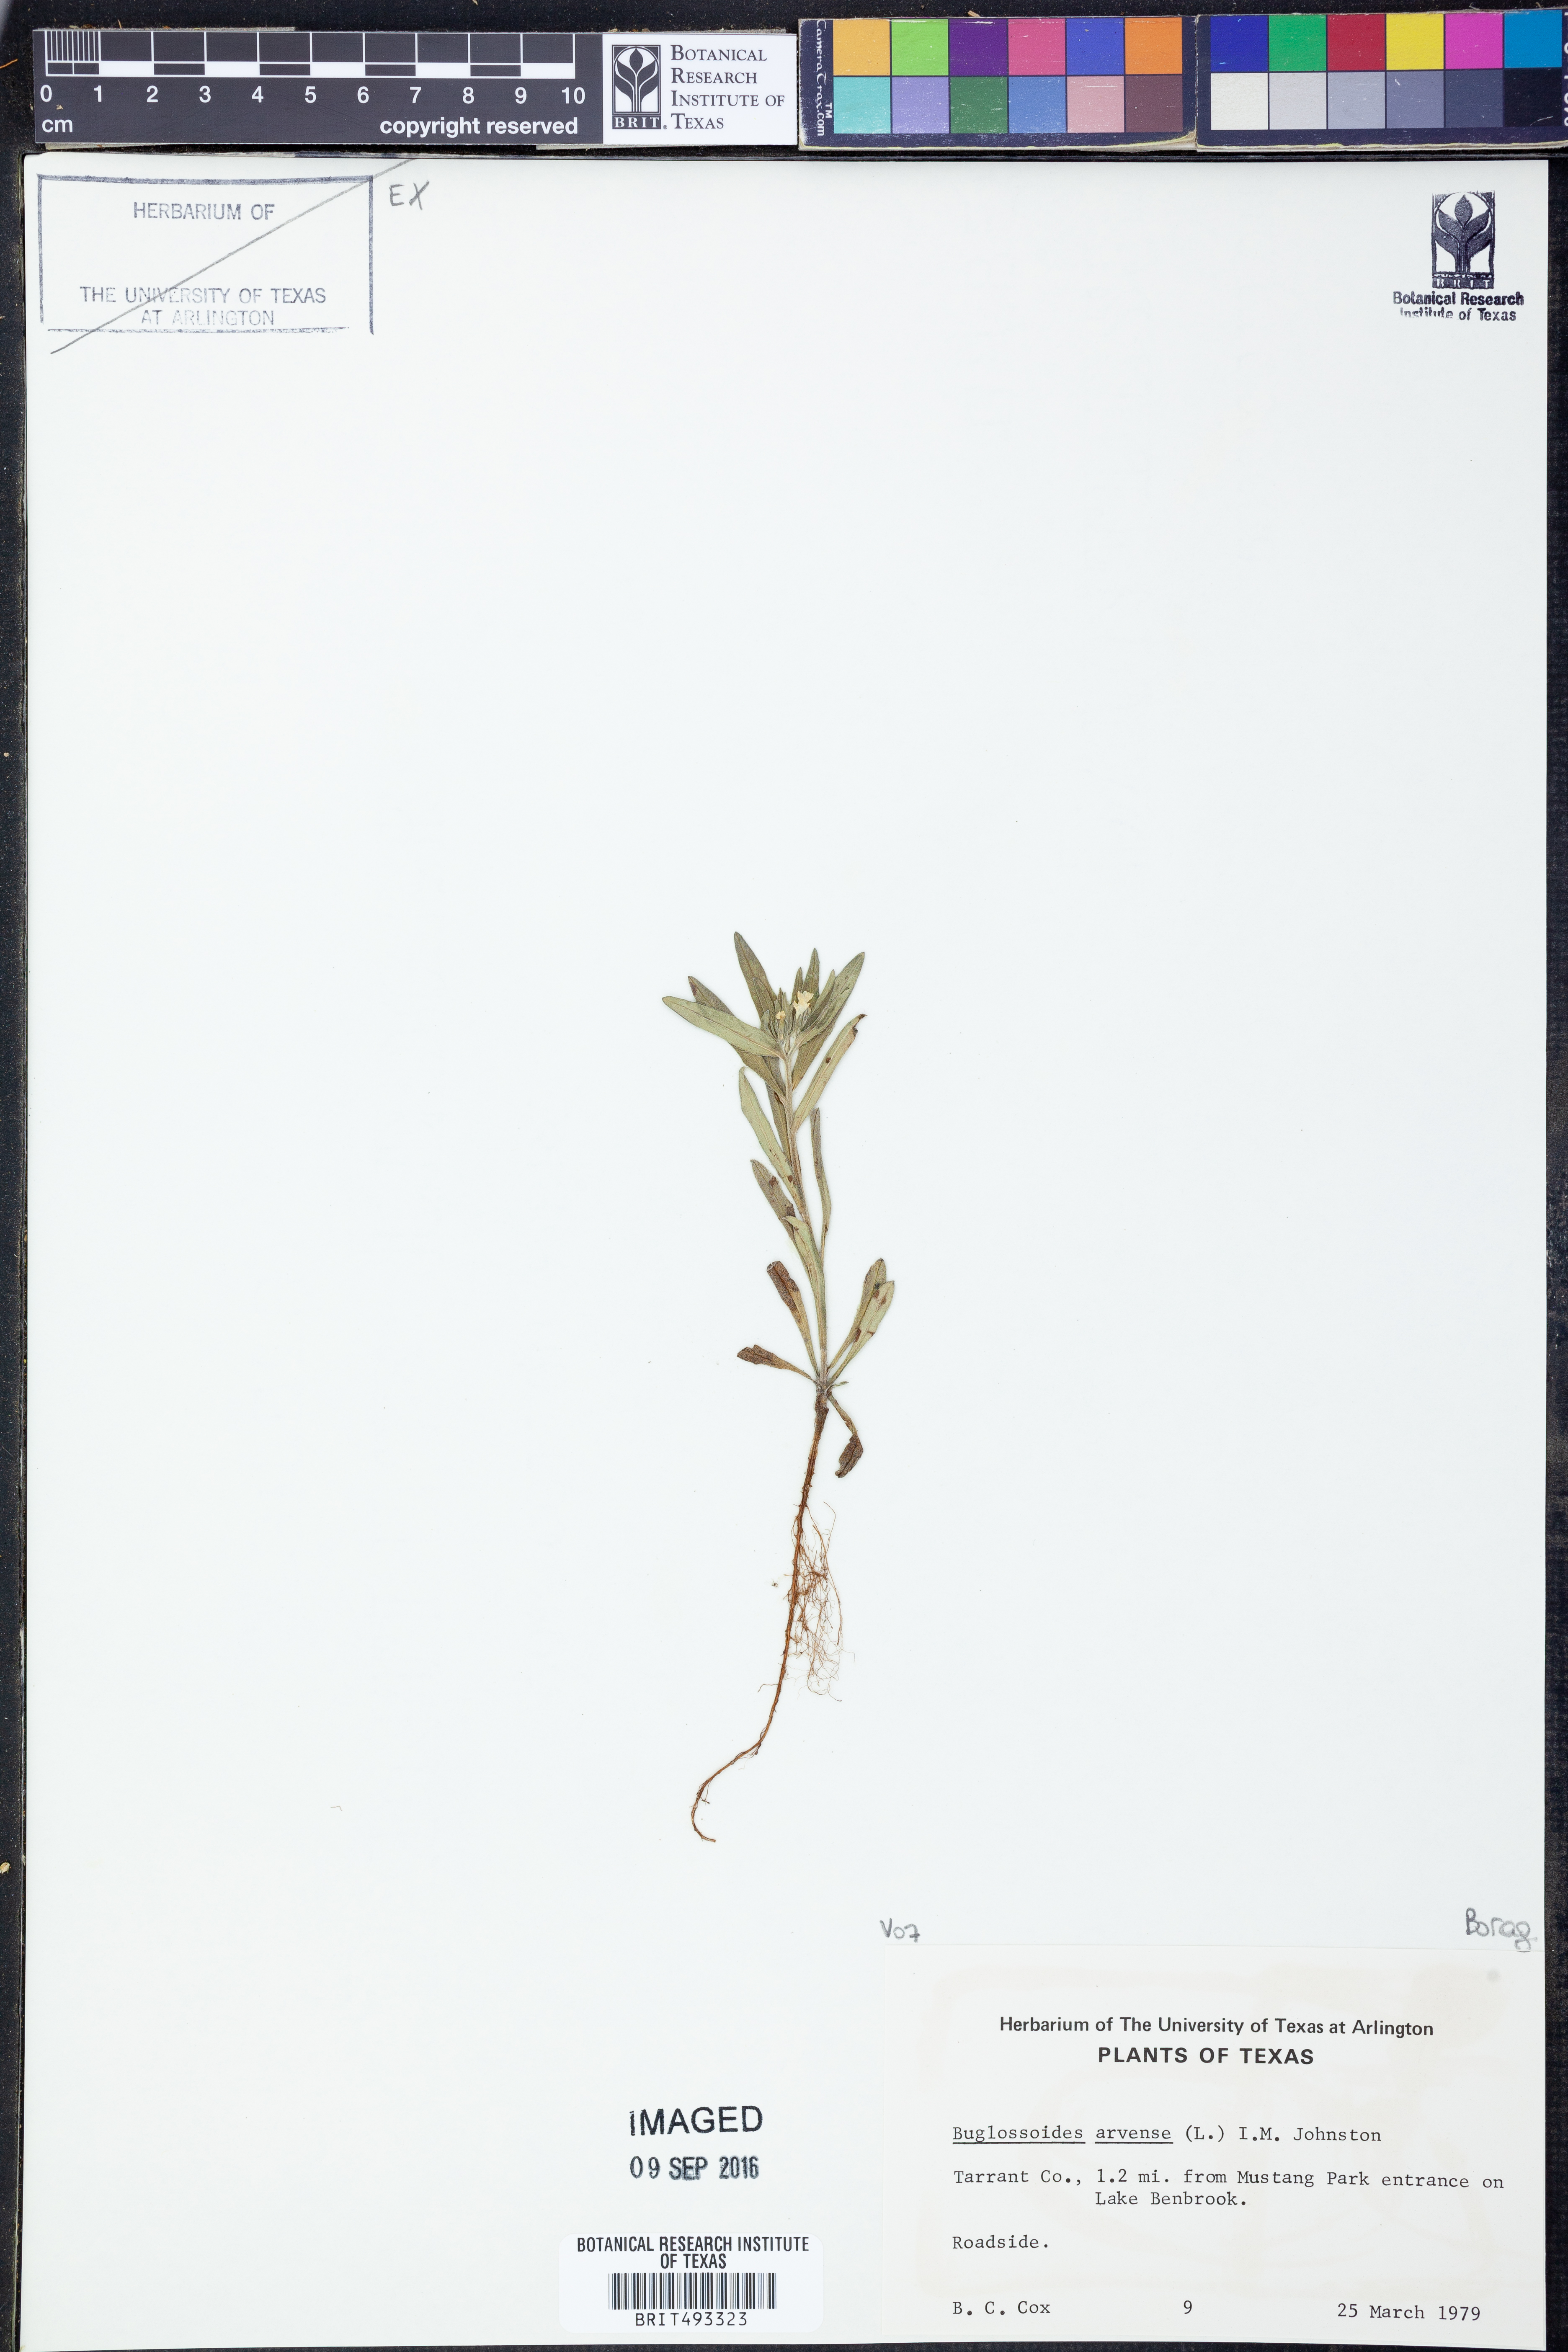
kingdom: Plantae
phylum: Tracheophyta
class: Magnoliopsida
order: Boraginales
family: Boraginaceae
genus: Buglossoides
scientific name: Buglossoides arvensis
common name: Corn gromwell
